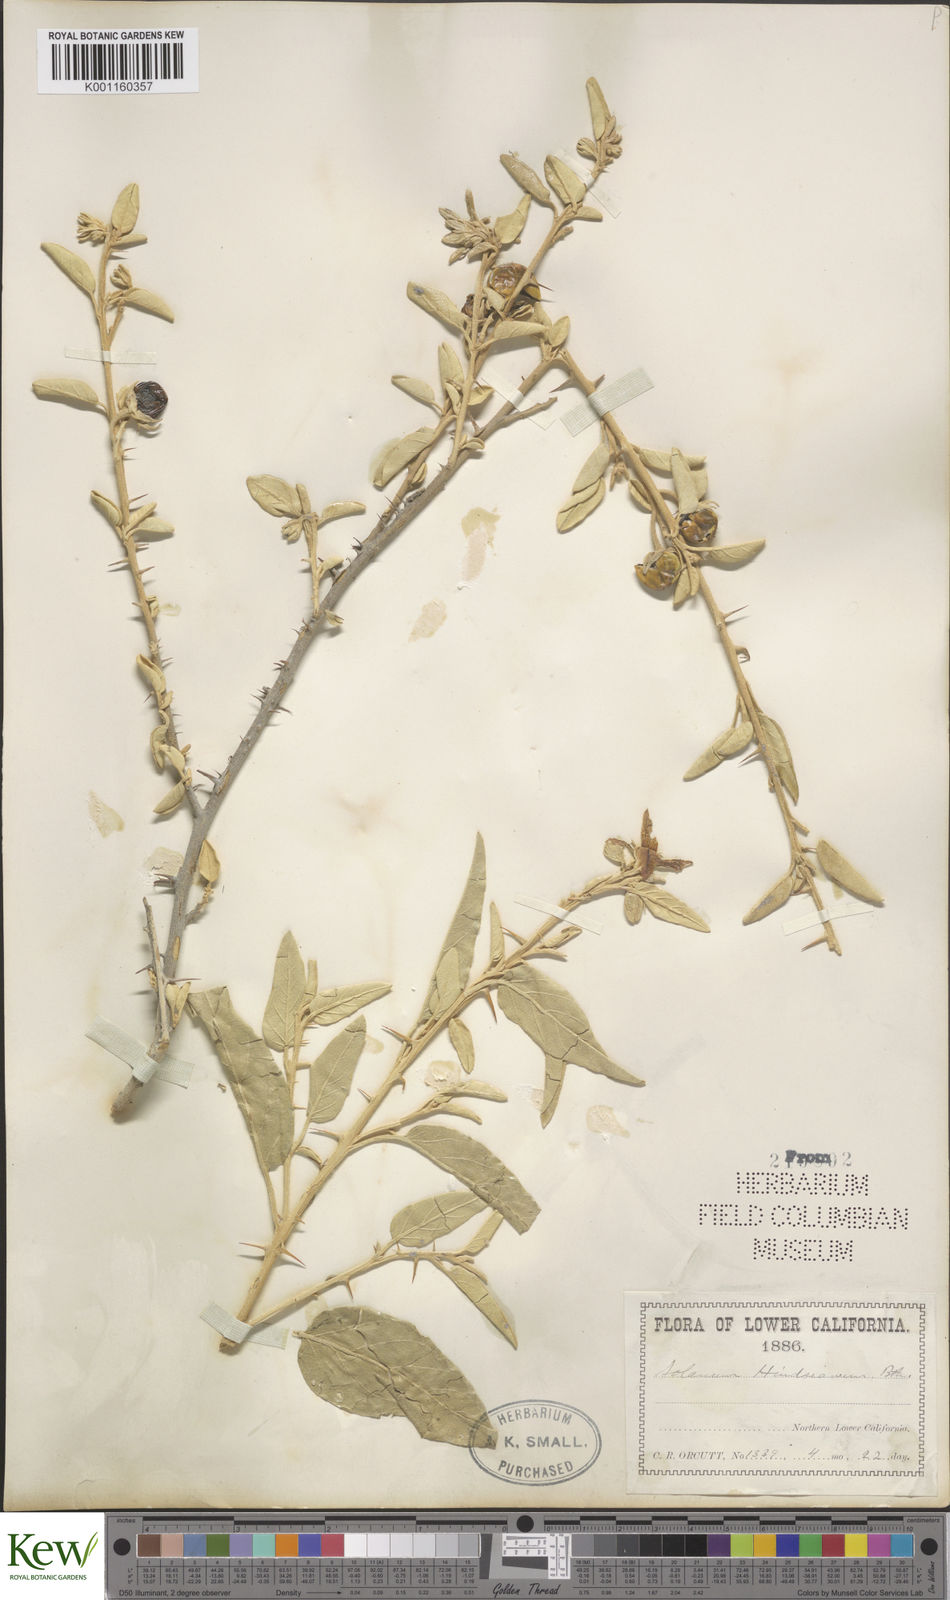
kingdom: Plantae
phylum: Tracheophyta
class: Magnoliopsida
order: Solanales
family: Solanaceae
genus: Solanum
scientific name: Solanum hindsianum
